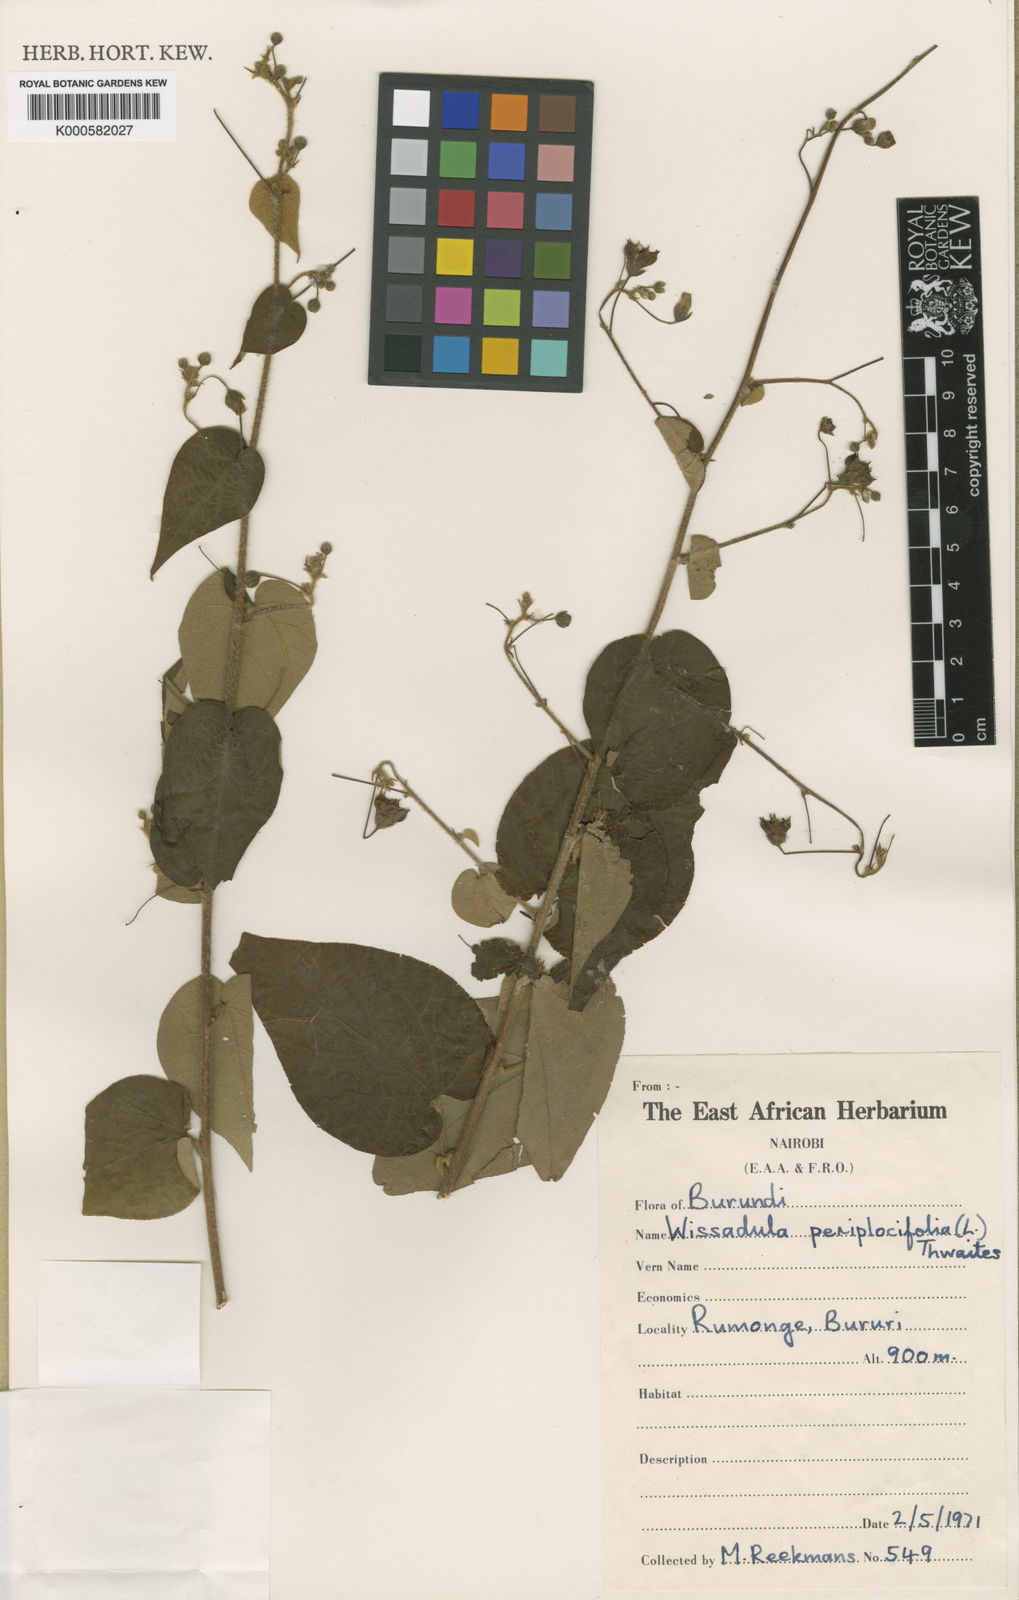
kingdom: Plantae
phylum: Tracheophyta
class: Magnoliopsida
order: Malvales
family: Malvaceae
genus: Wissadula
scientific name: Wissadula periplocifolia
